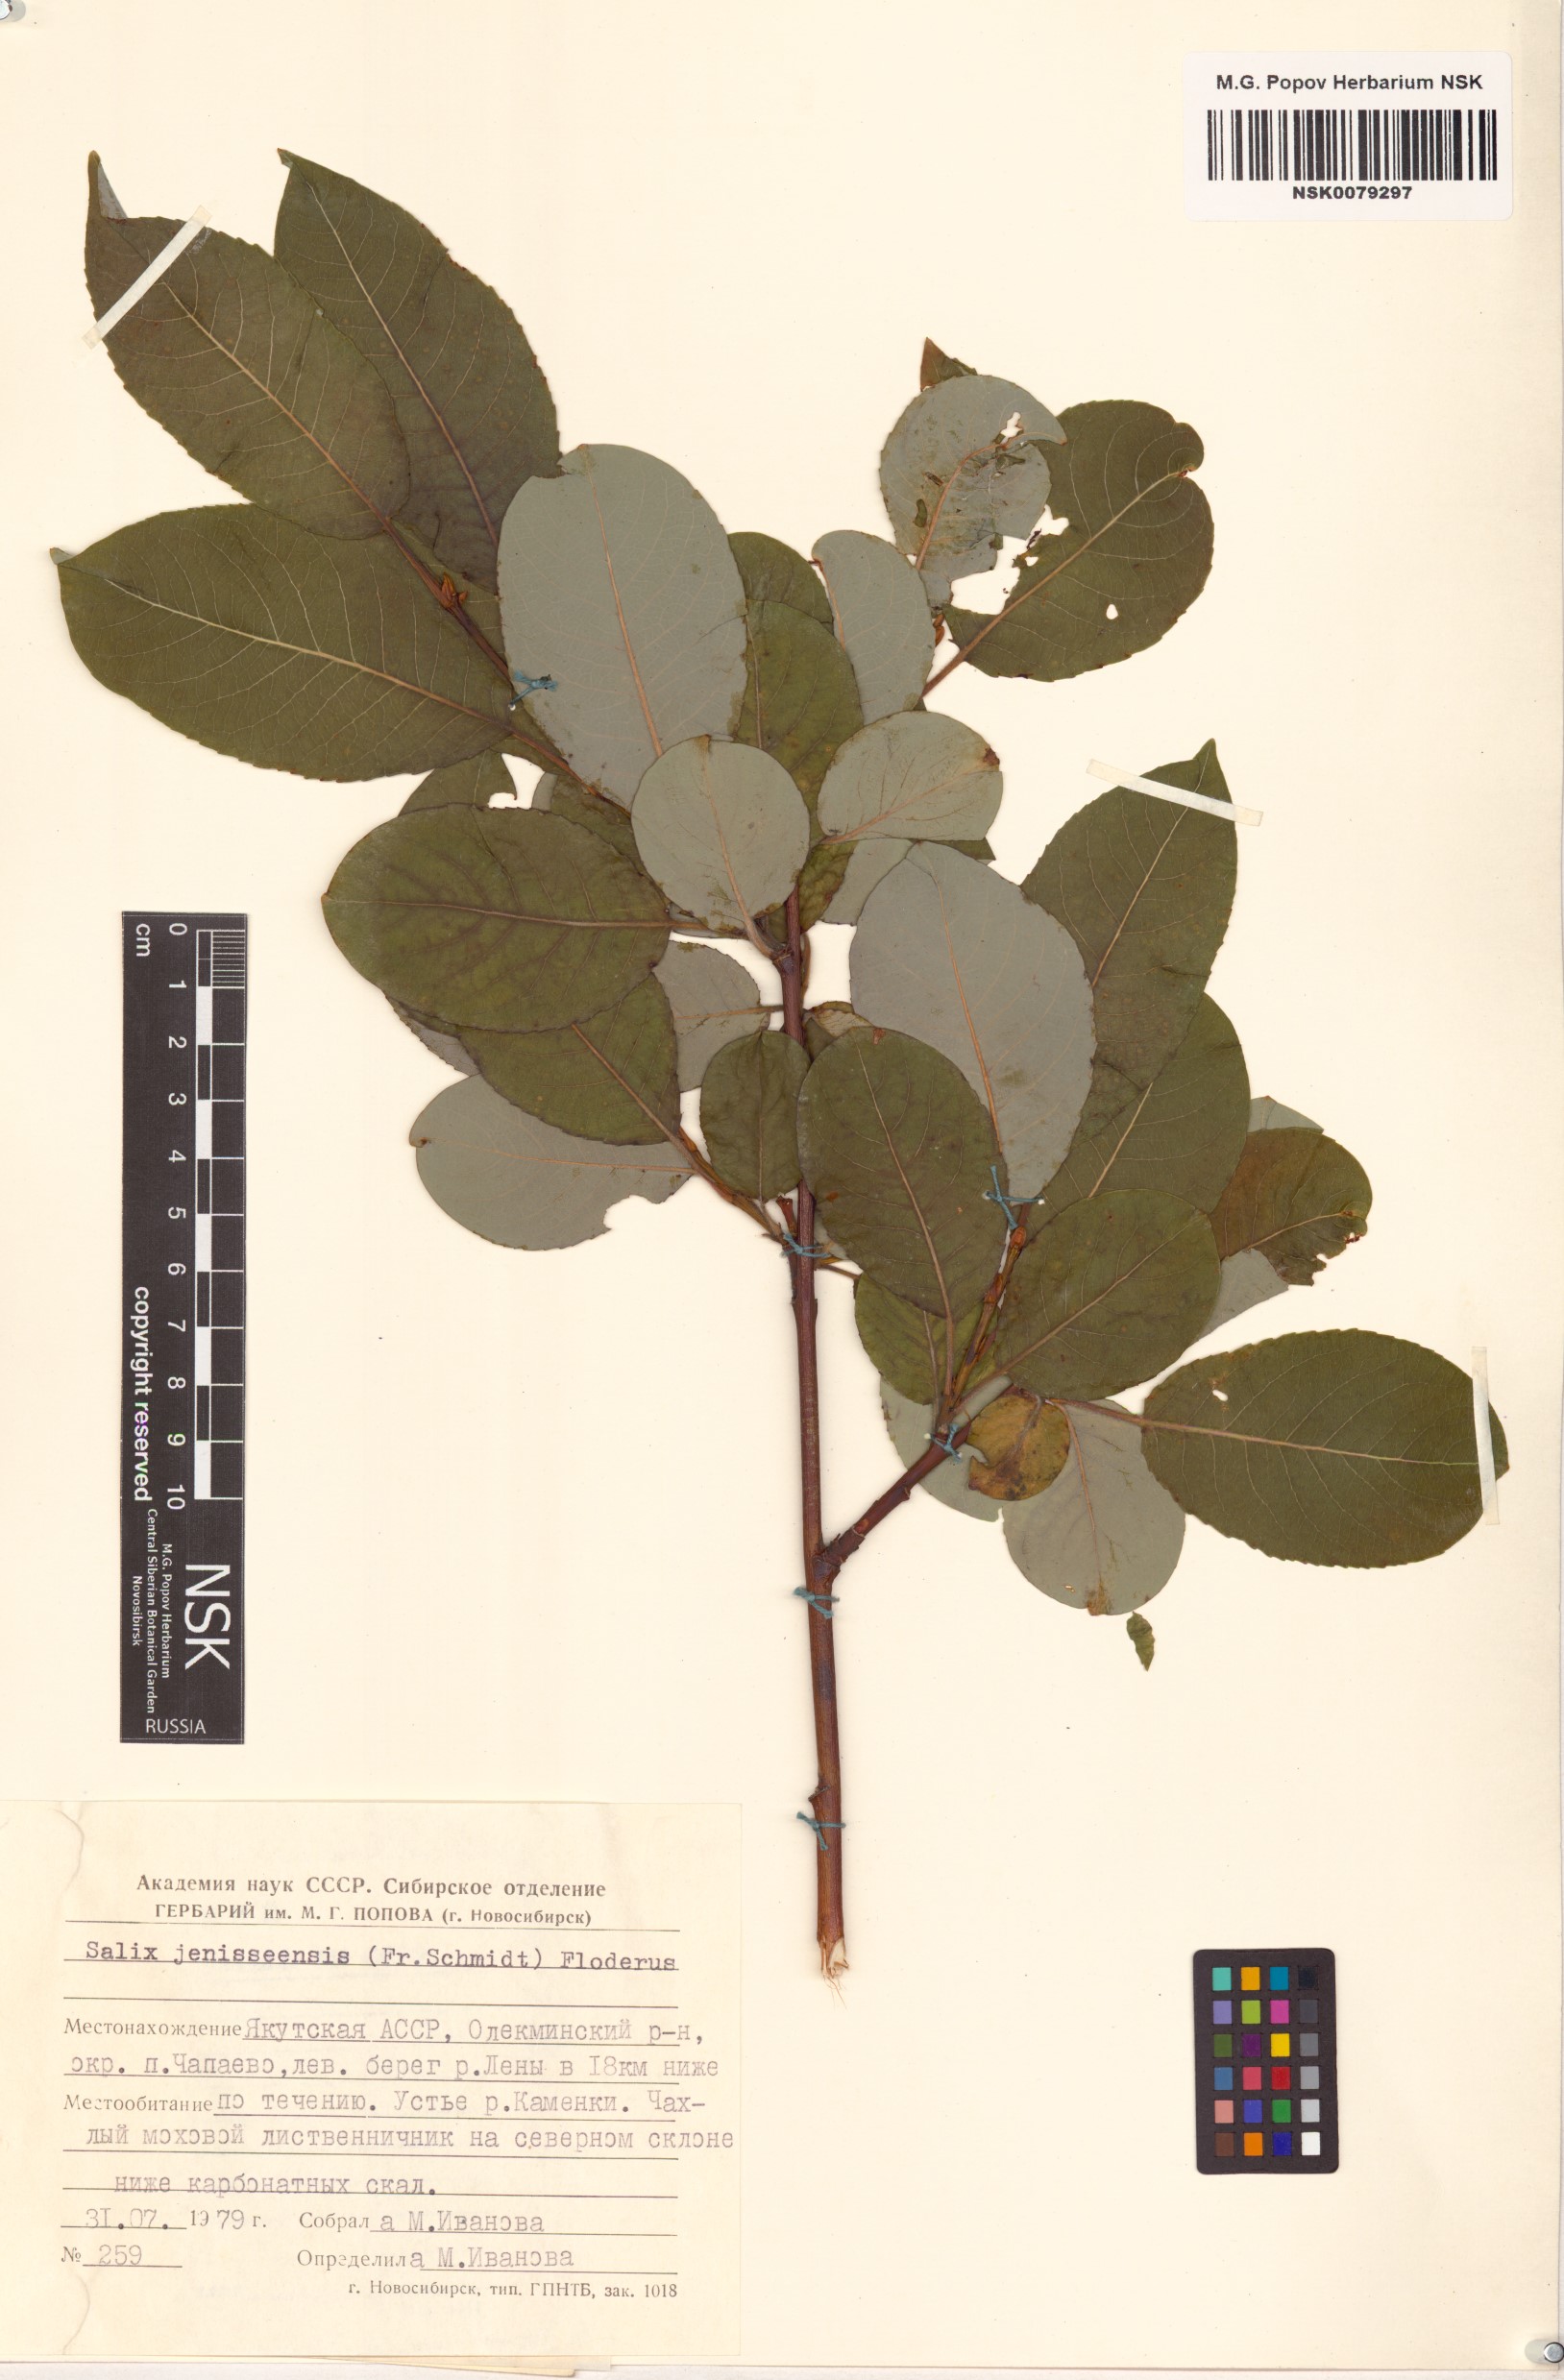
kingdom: Plantae
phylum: Tracheophyta
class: Magnoliopsida
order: Malpighiales
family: Salicaceae
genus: Salix
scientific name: Salix jenisseensis
